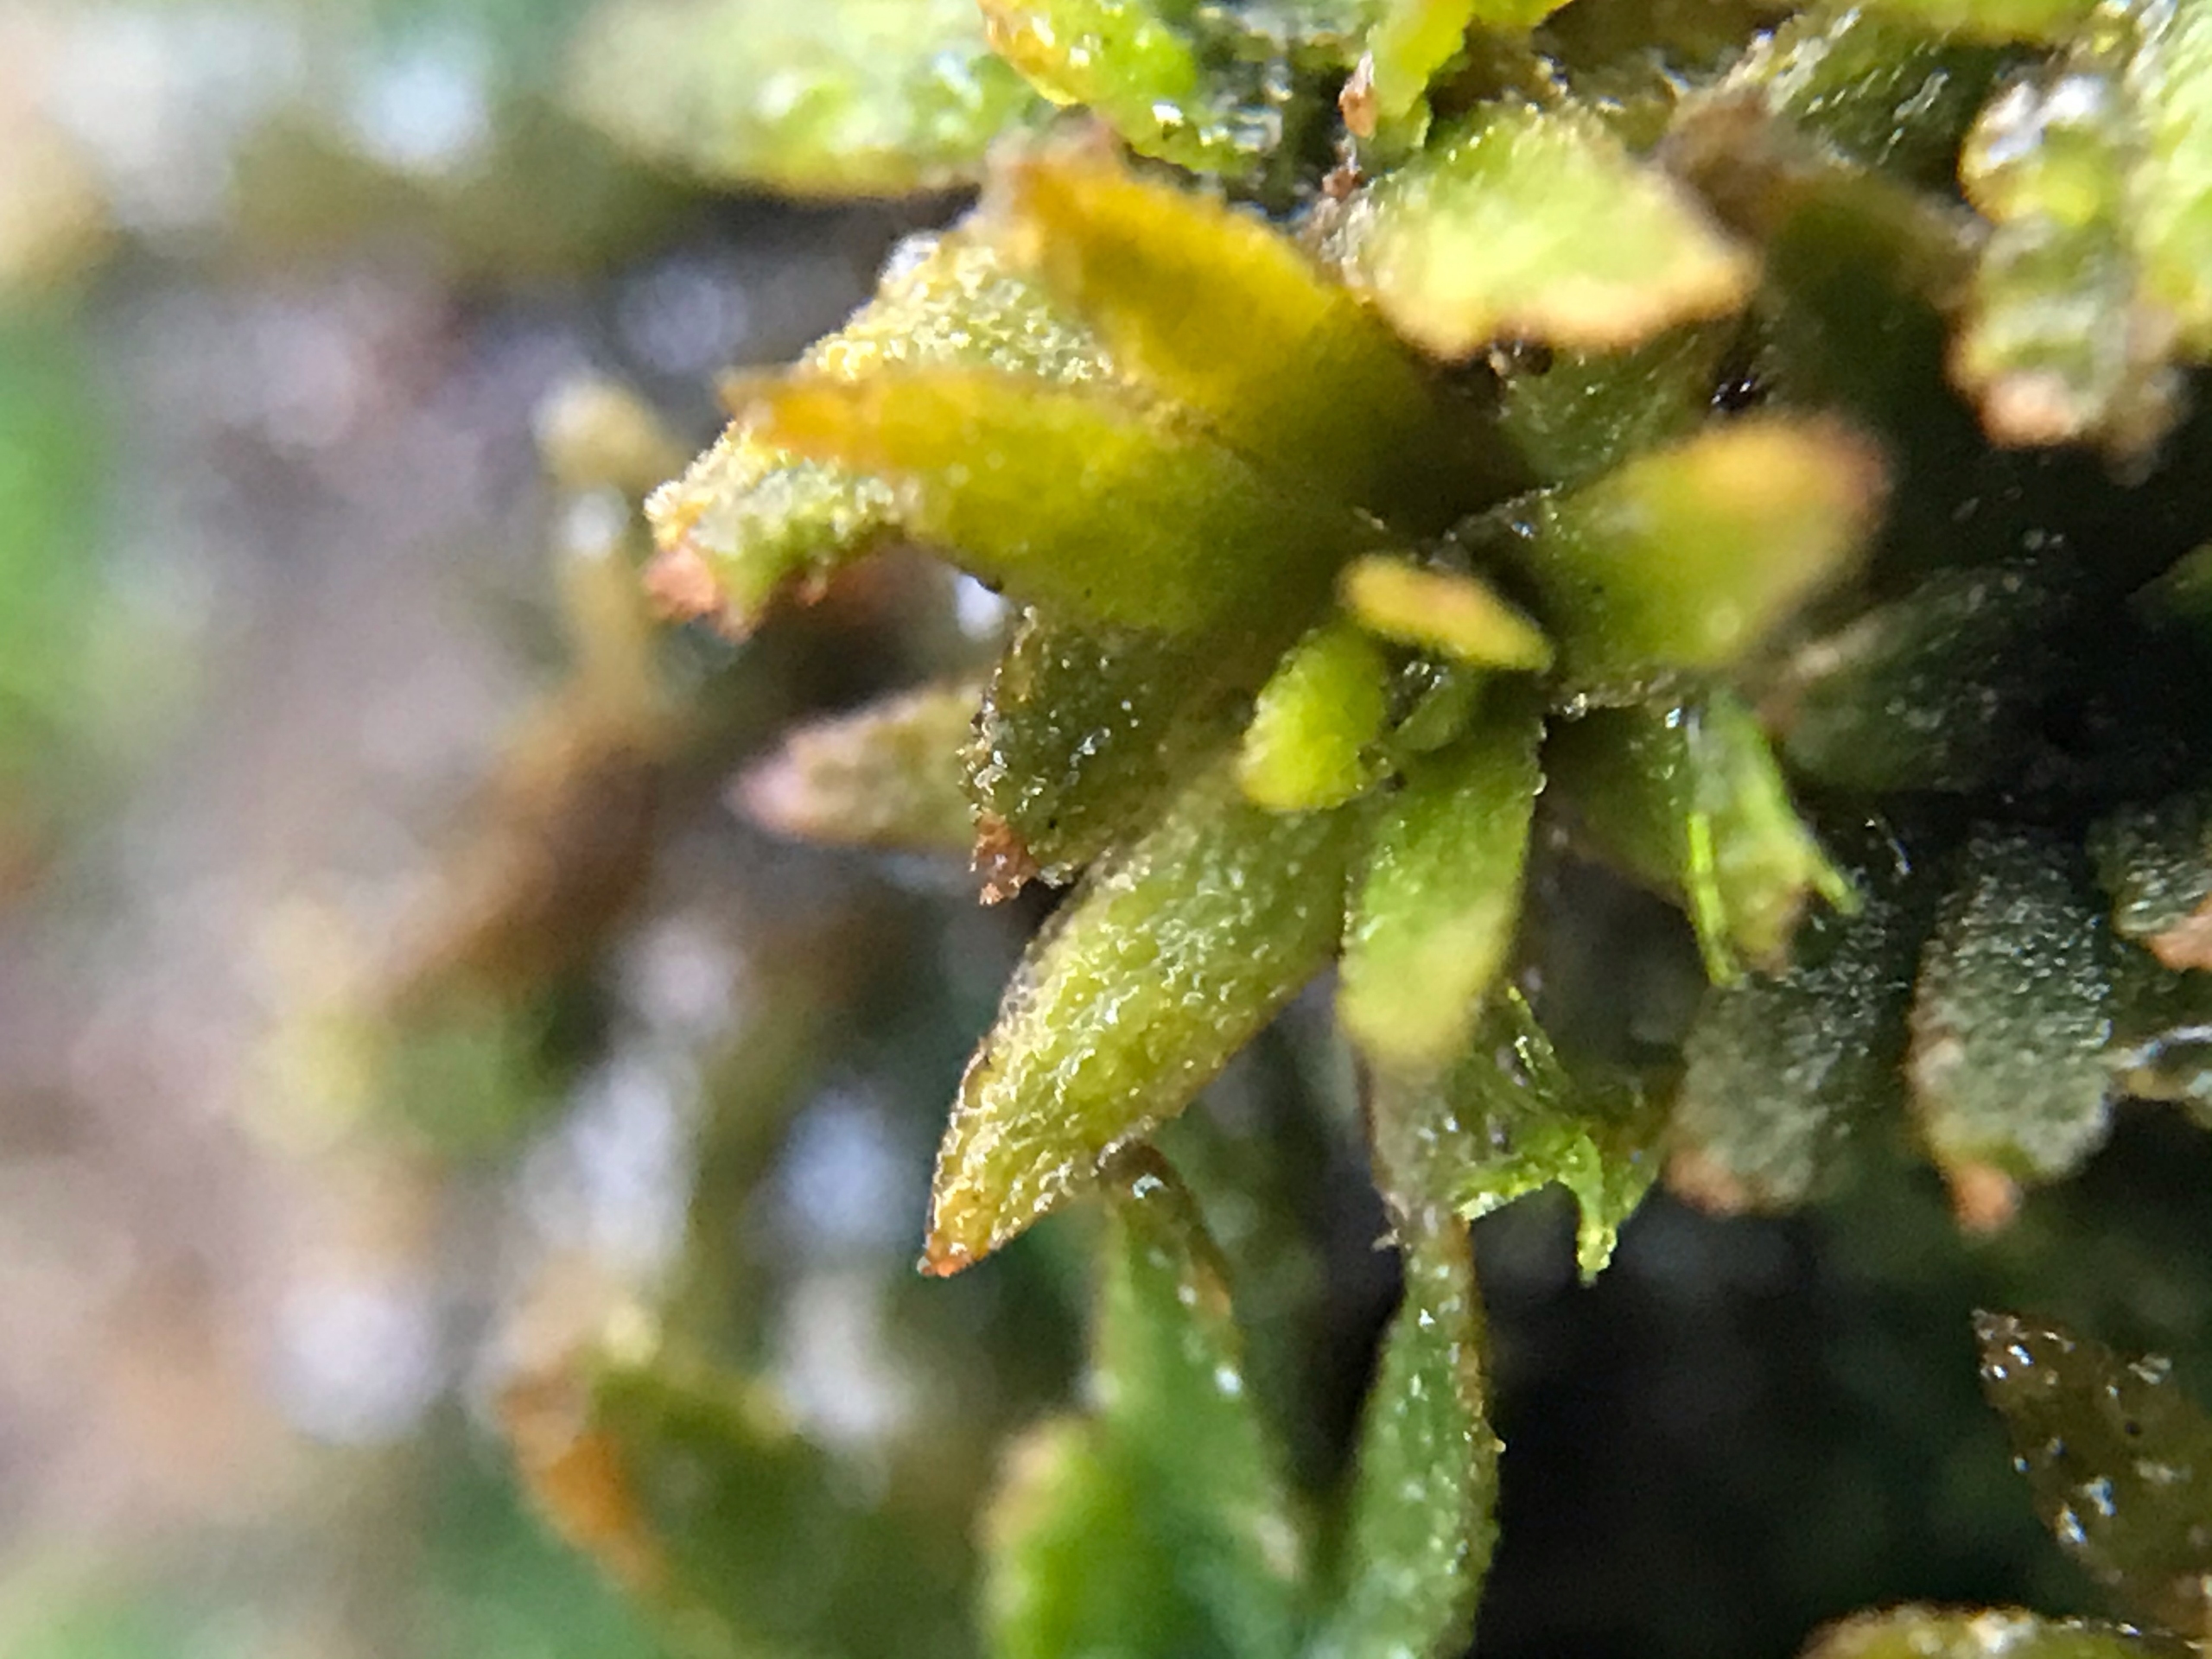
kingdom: Plantae
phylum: Bryophyta
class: Polytrichopsida
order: Polytrichales
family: Polytrichaceae
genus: Pogonatum
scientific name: Pogonatum nanum
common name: Dværg-urnekapsel
